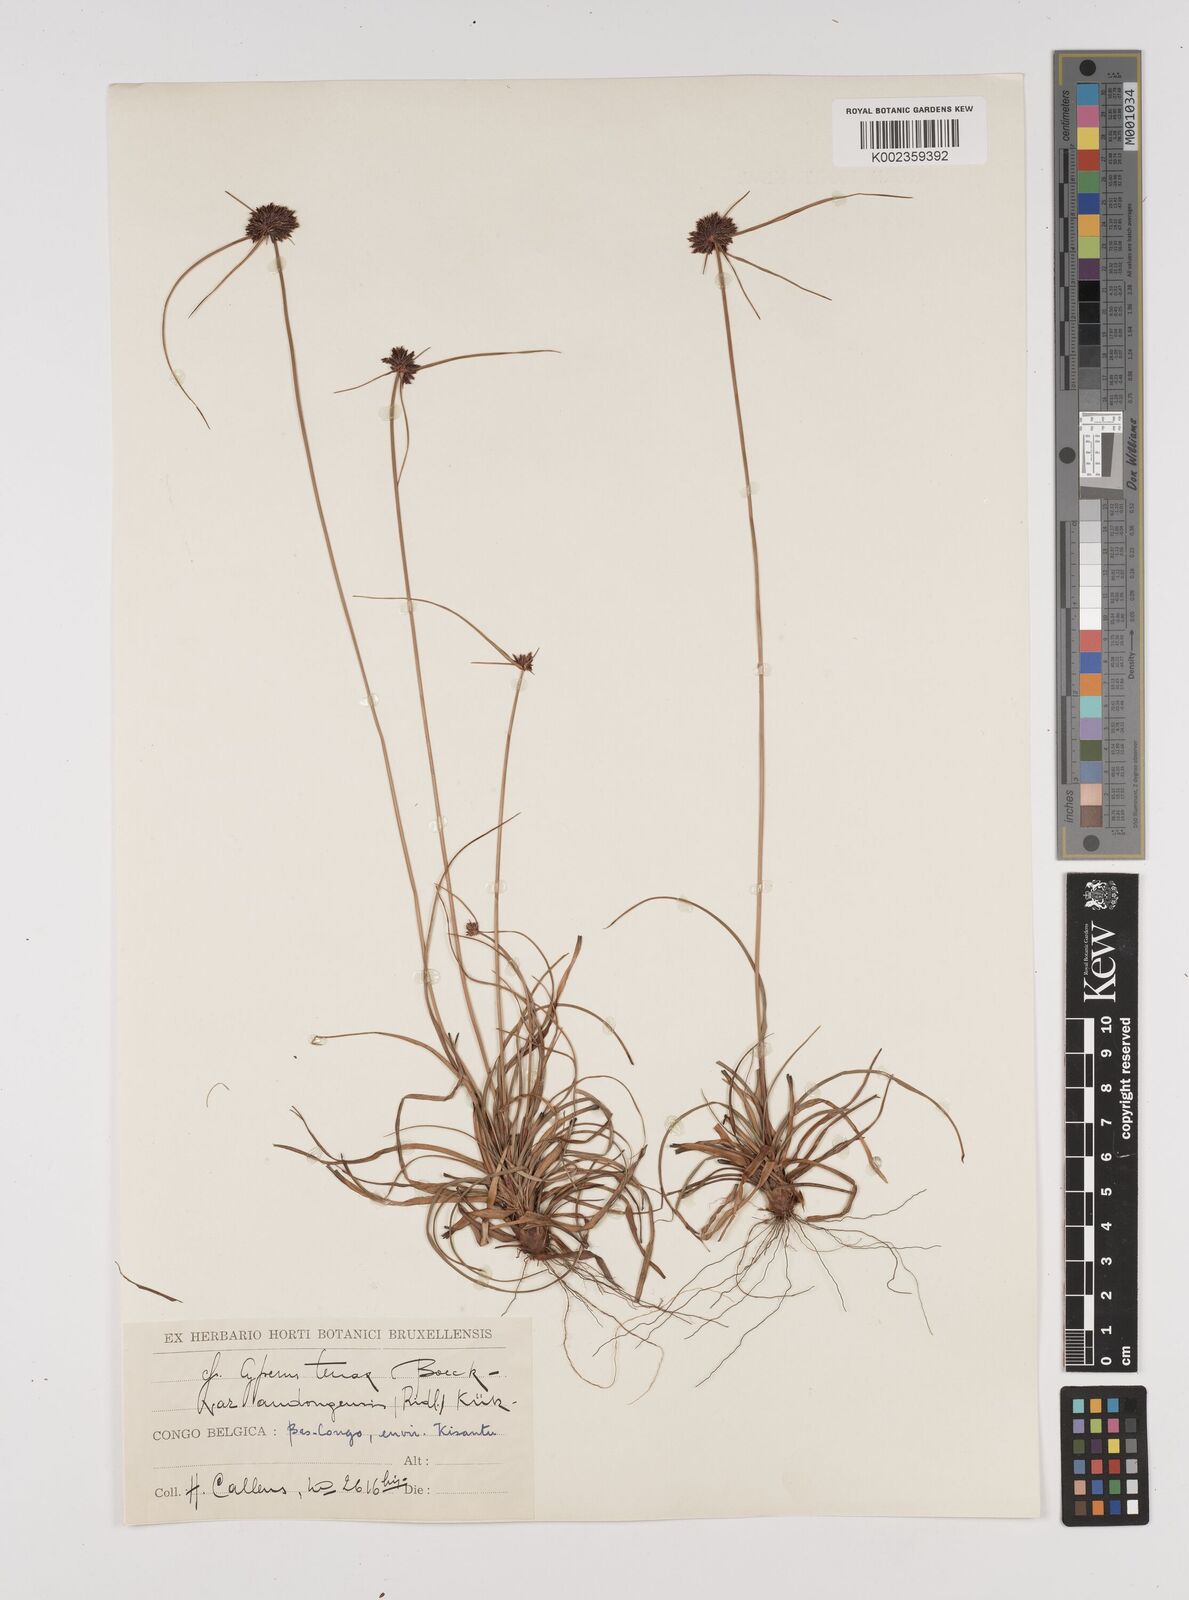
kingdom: Plantae
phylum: Tracheophyta
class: Liliopsida
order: Poales
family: Cyperaceae
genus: Cyperus
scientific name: Cyperus tenax
